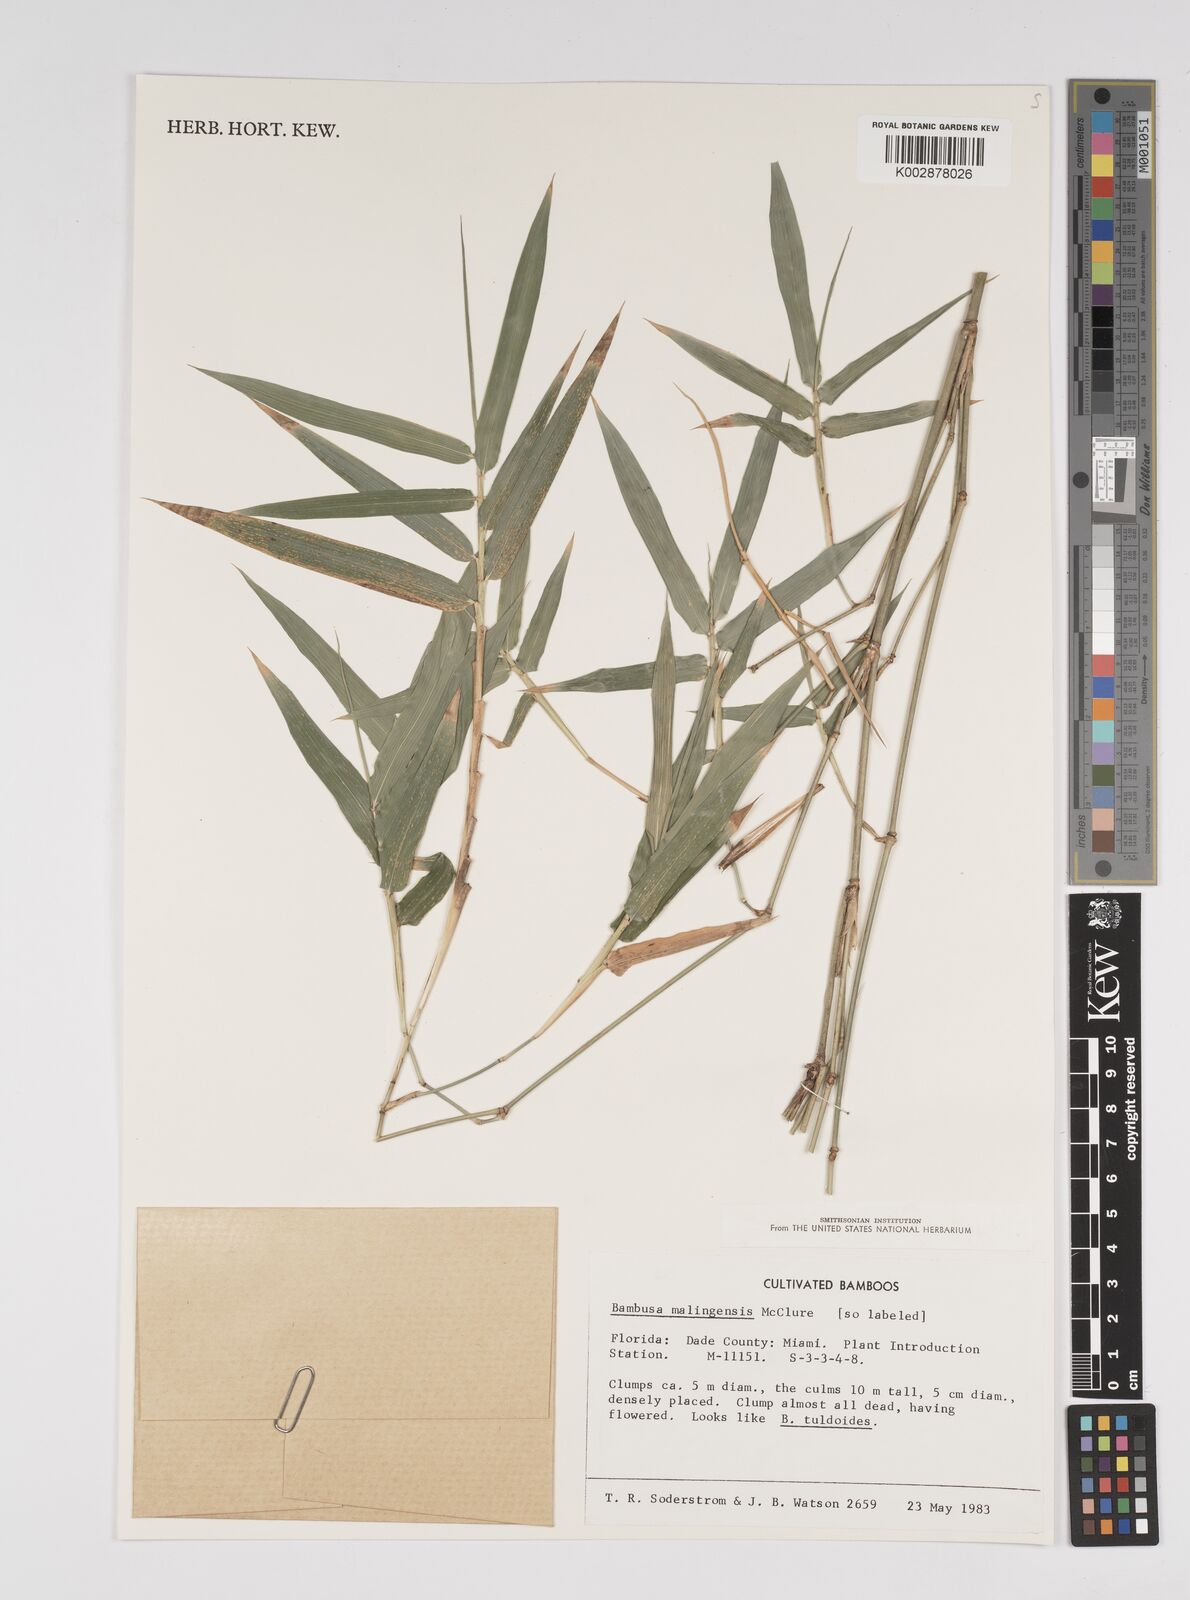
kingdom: Plantae
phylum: Tracheophyta
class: Liliopsida
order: Poales
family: Poaceae
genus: Bambusa
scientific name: Bambusa malingensis
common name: Maling bamboo
